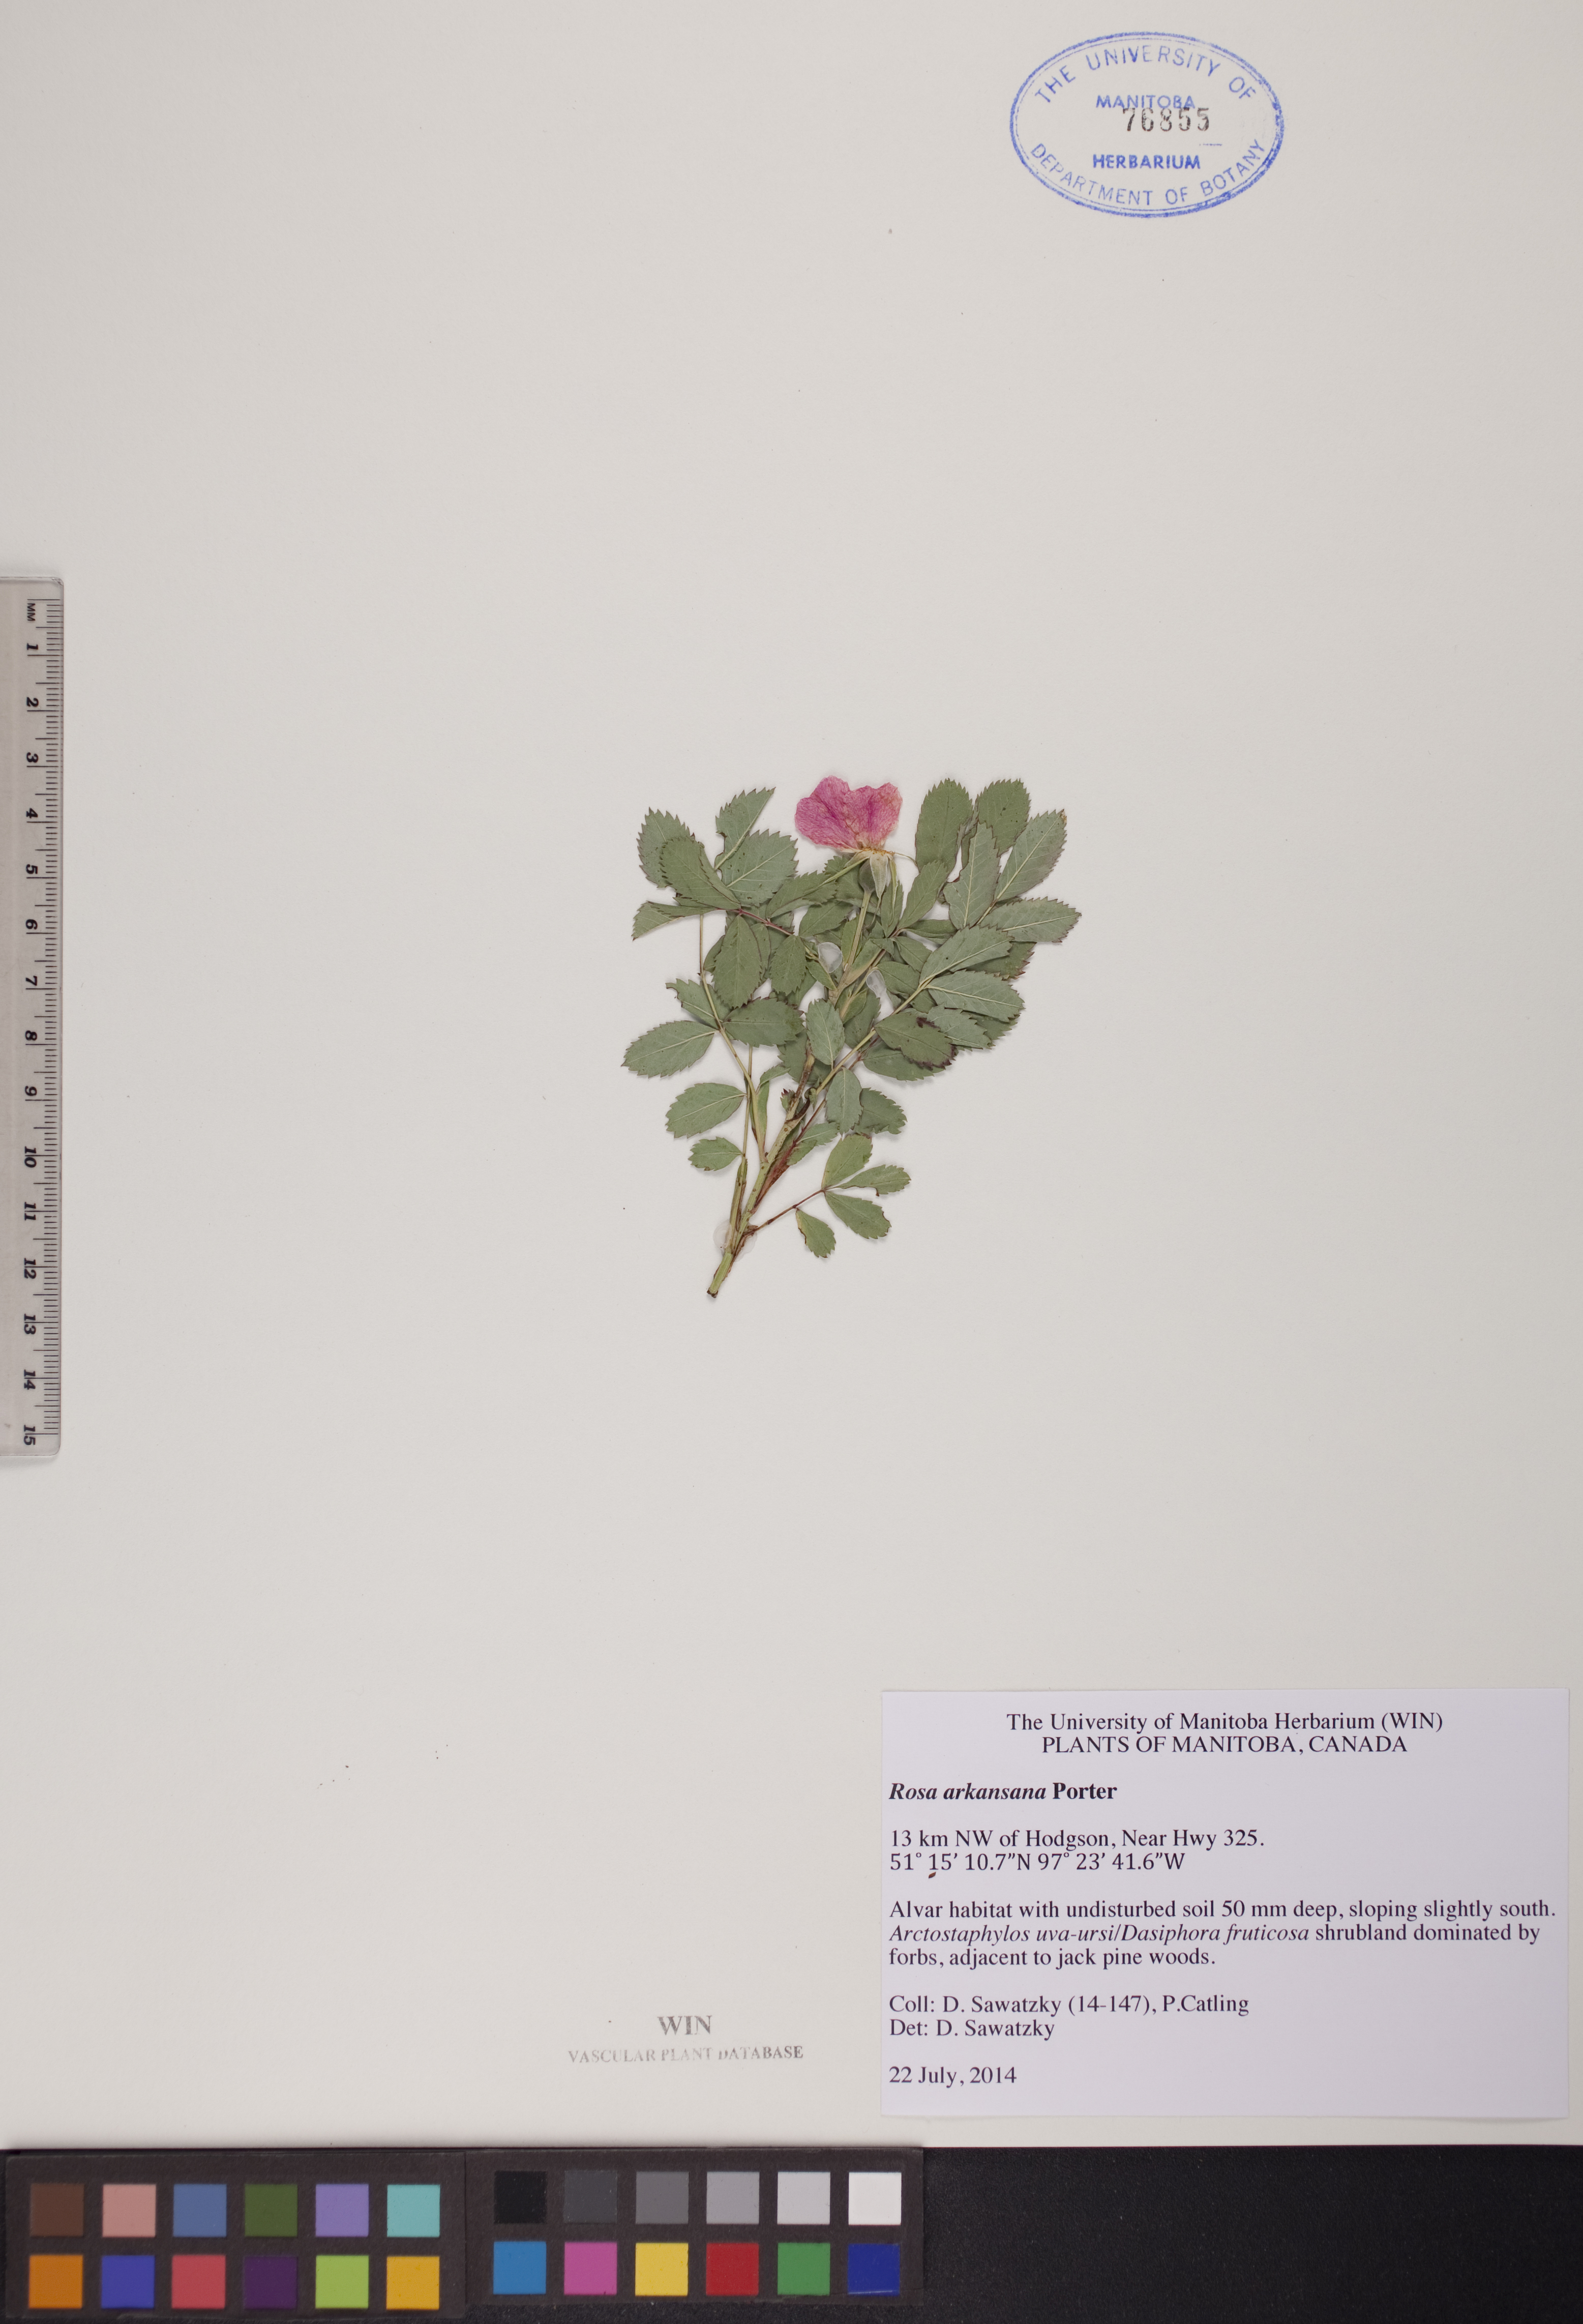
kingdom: Plantae
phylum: Tracheophyta
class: Magnoliopsida
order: Rosales
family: Rosaceae
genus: Rosa
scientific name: Rosa arkansana
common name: Prairie rose
